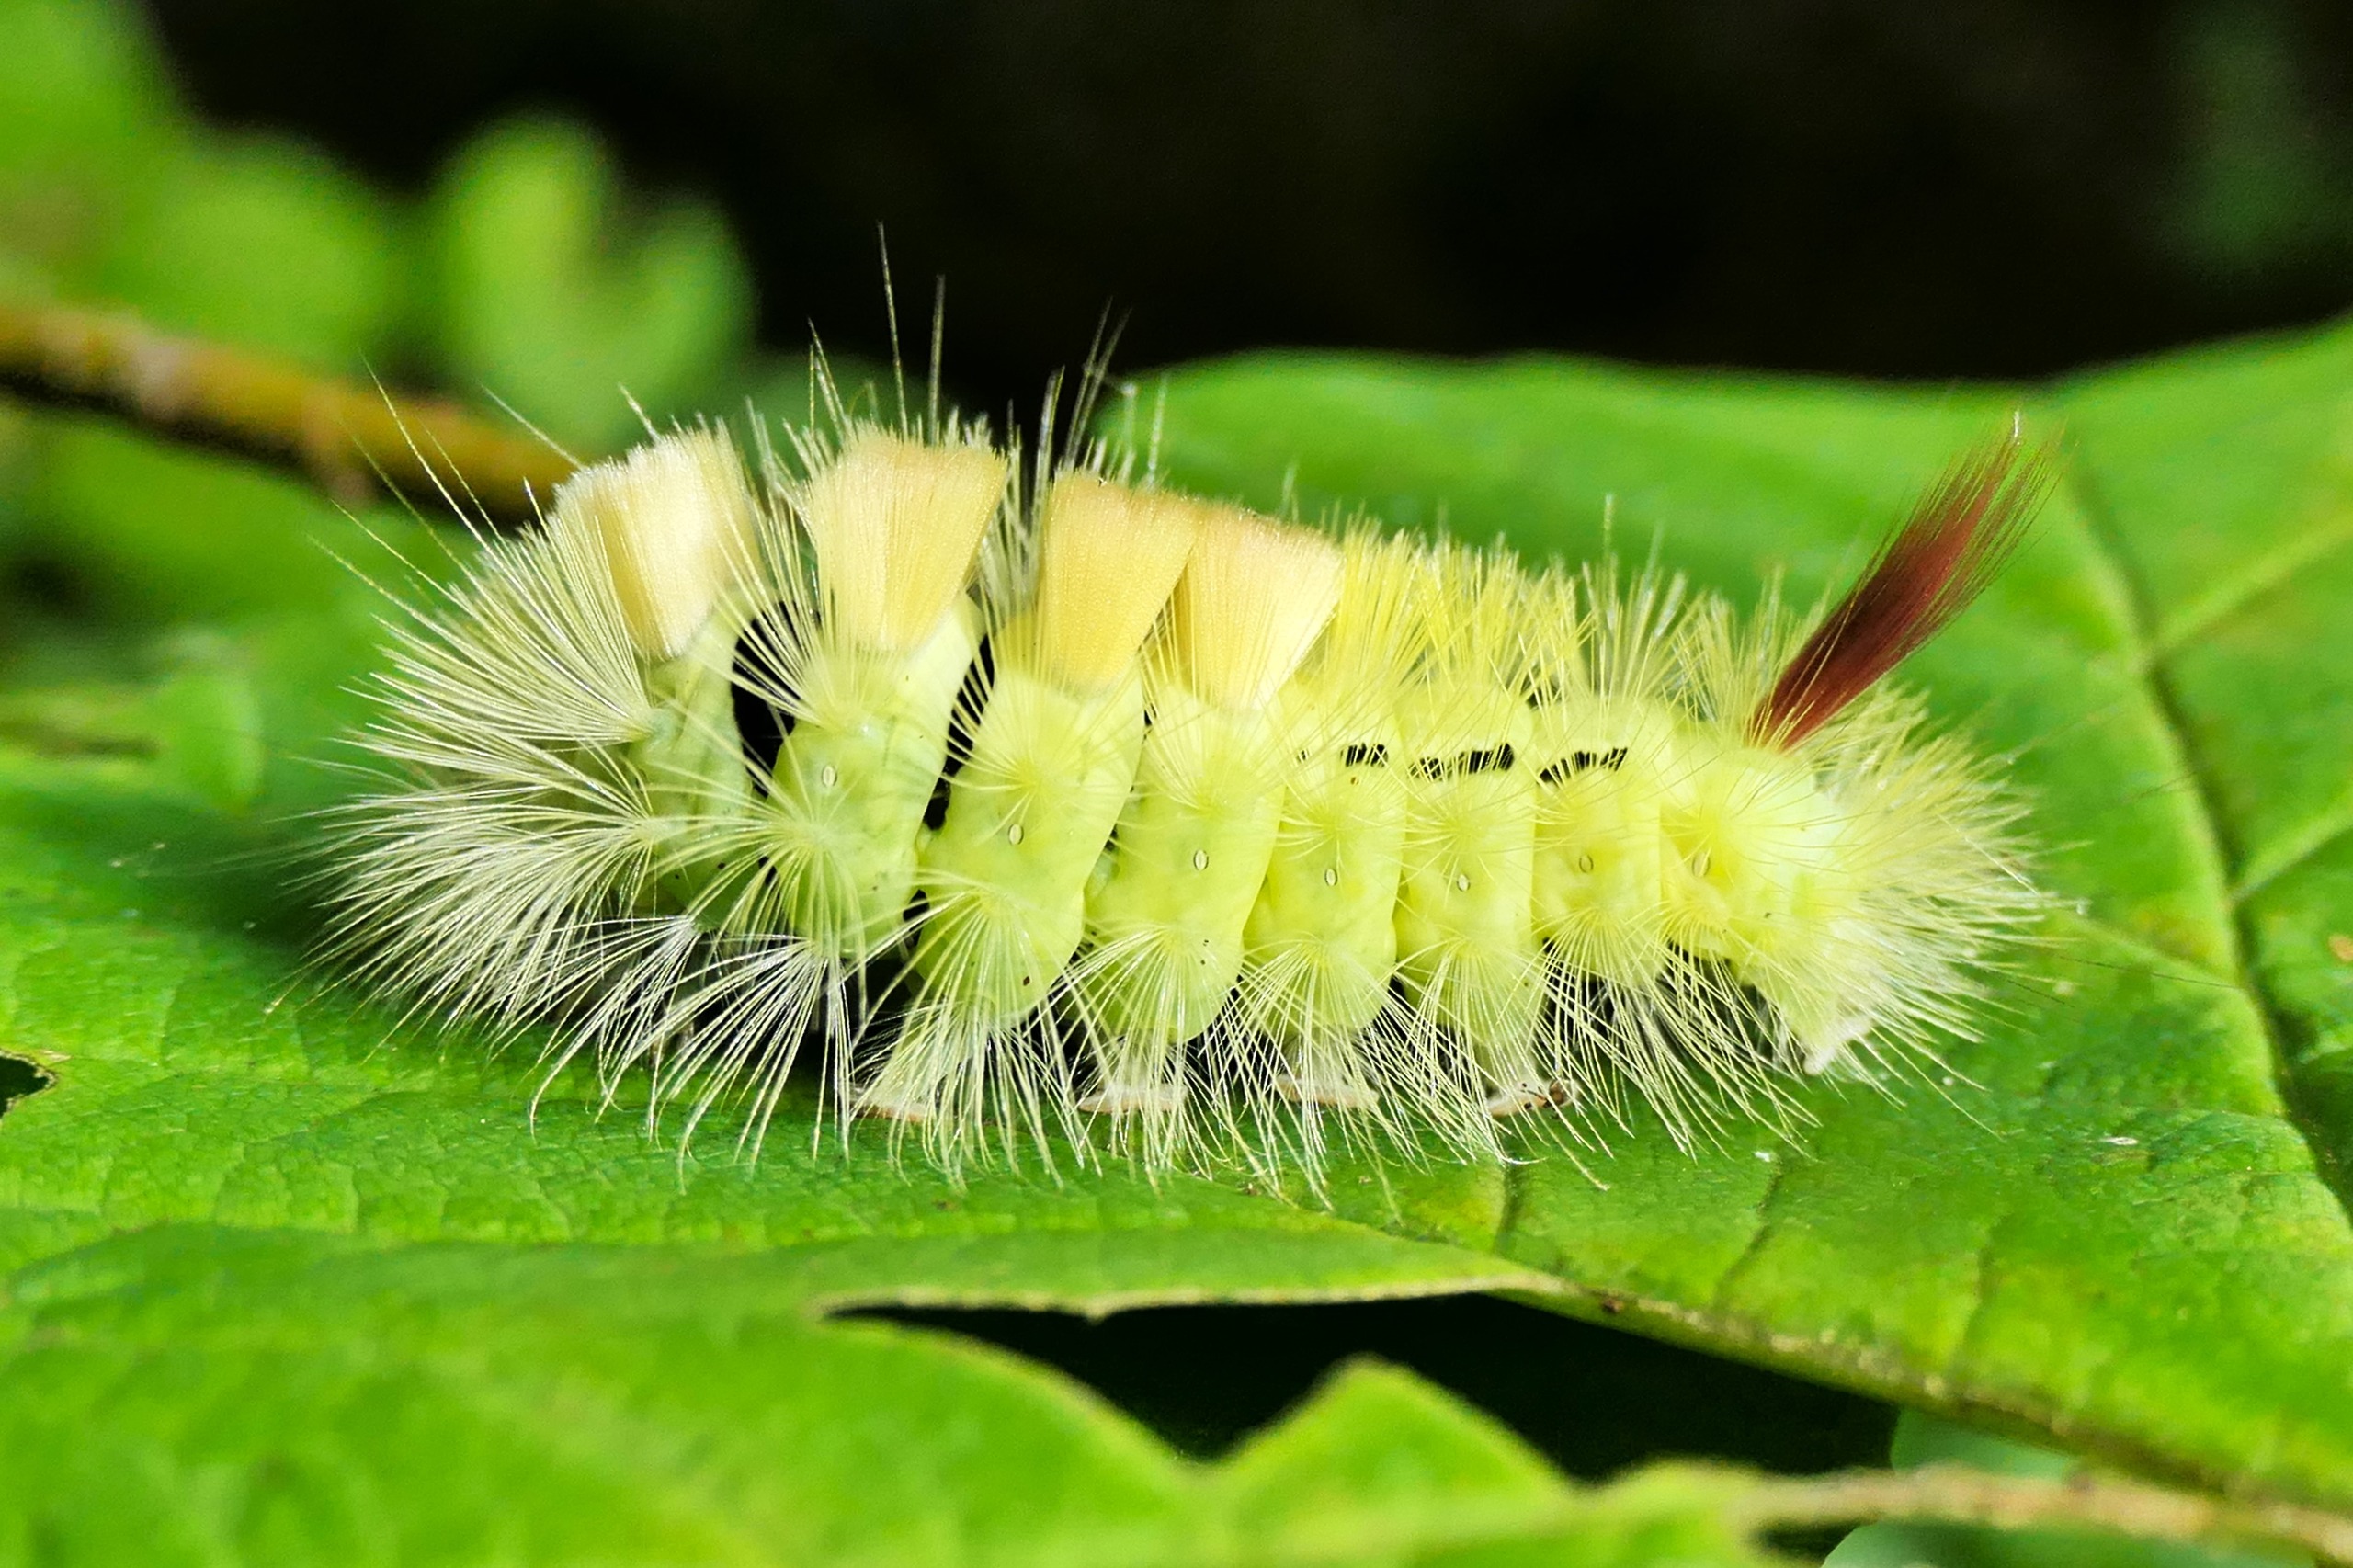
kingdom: Animalia
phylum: Arthropoda
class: Insecta
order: Lepidoptera
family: Erebidae
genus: Calliteara
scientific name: Calliteara pudibunda
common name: Bøgenonne
